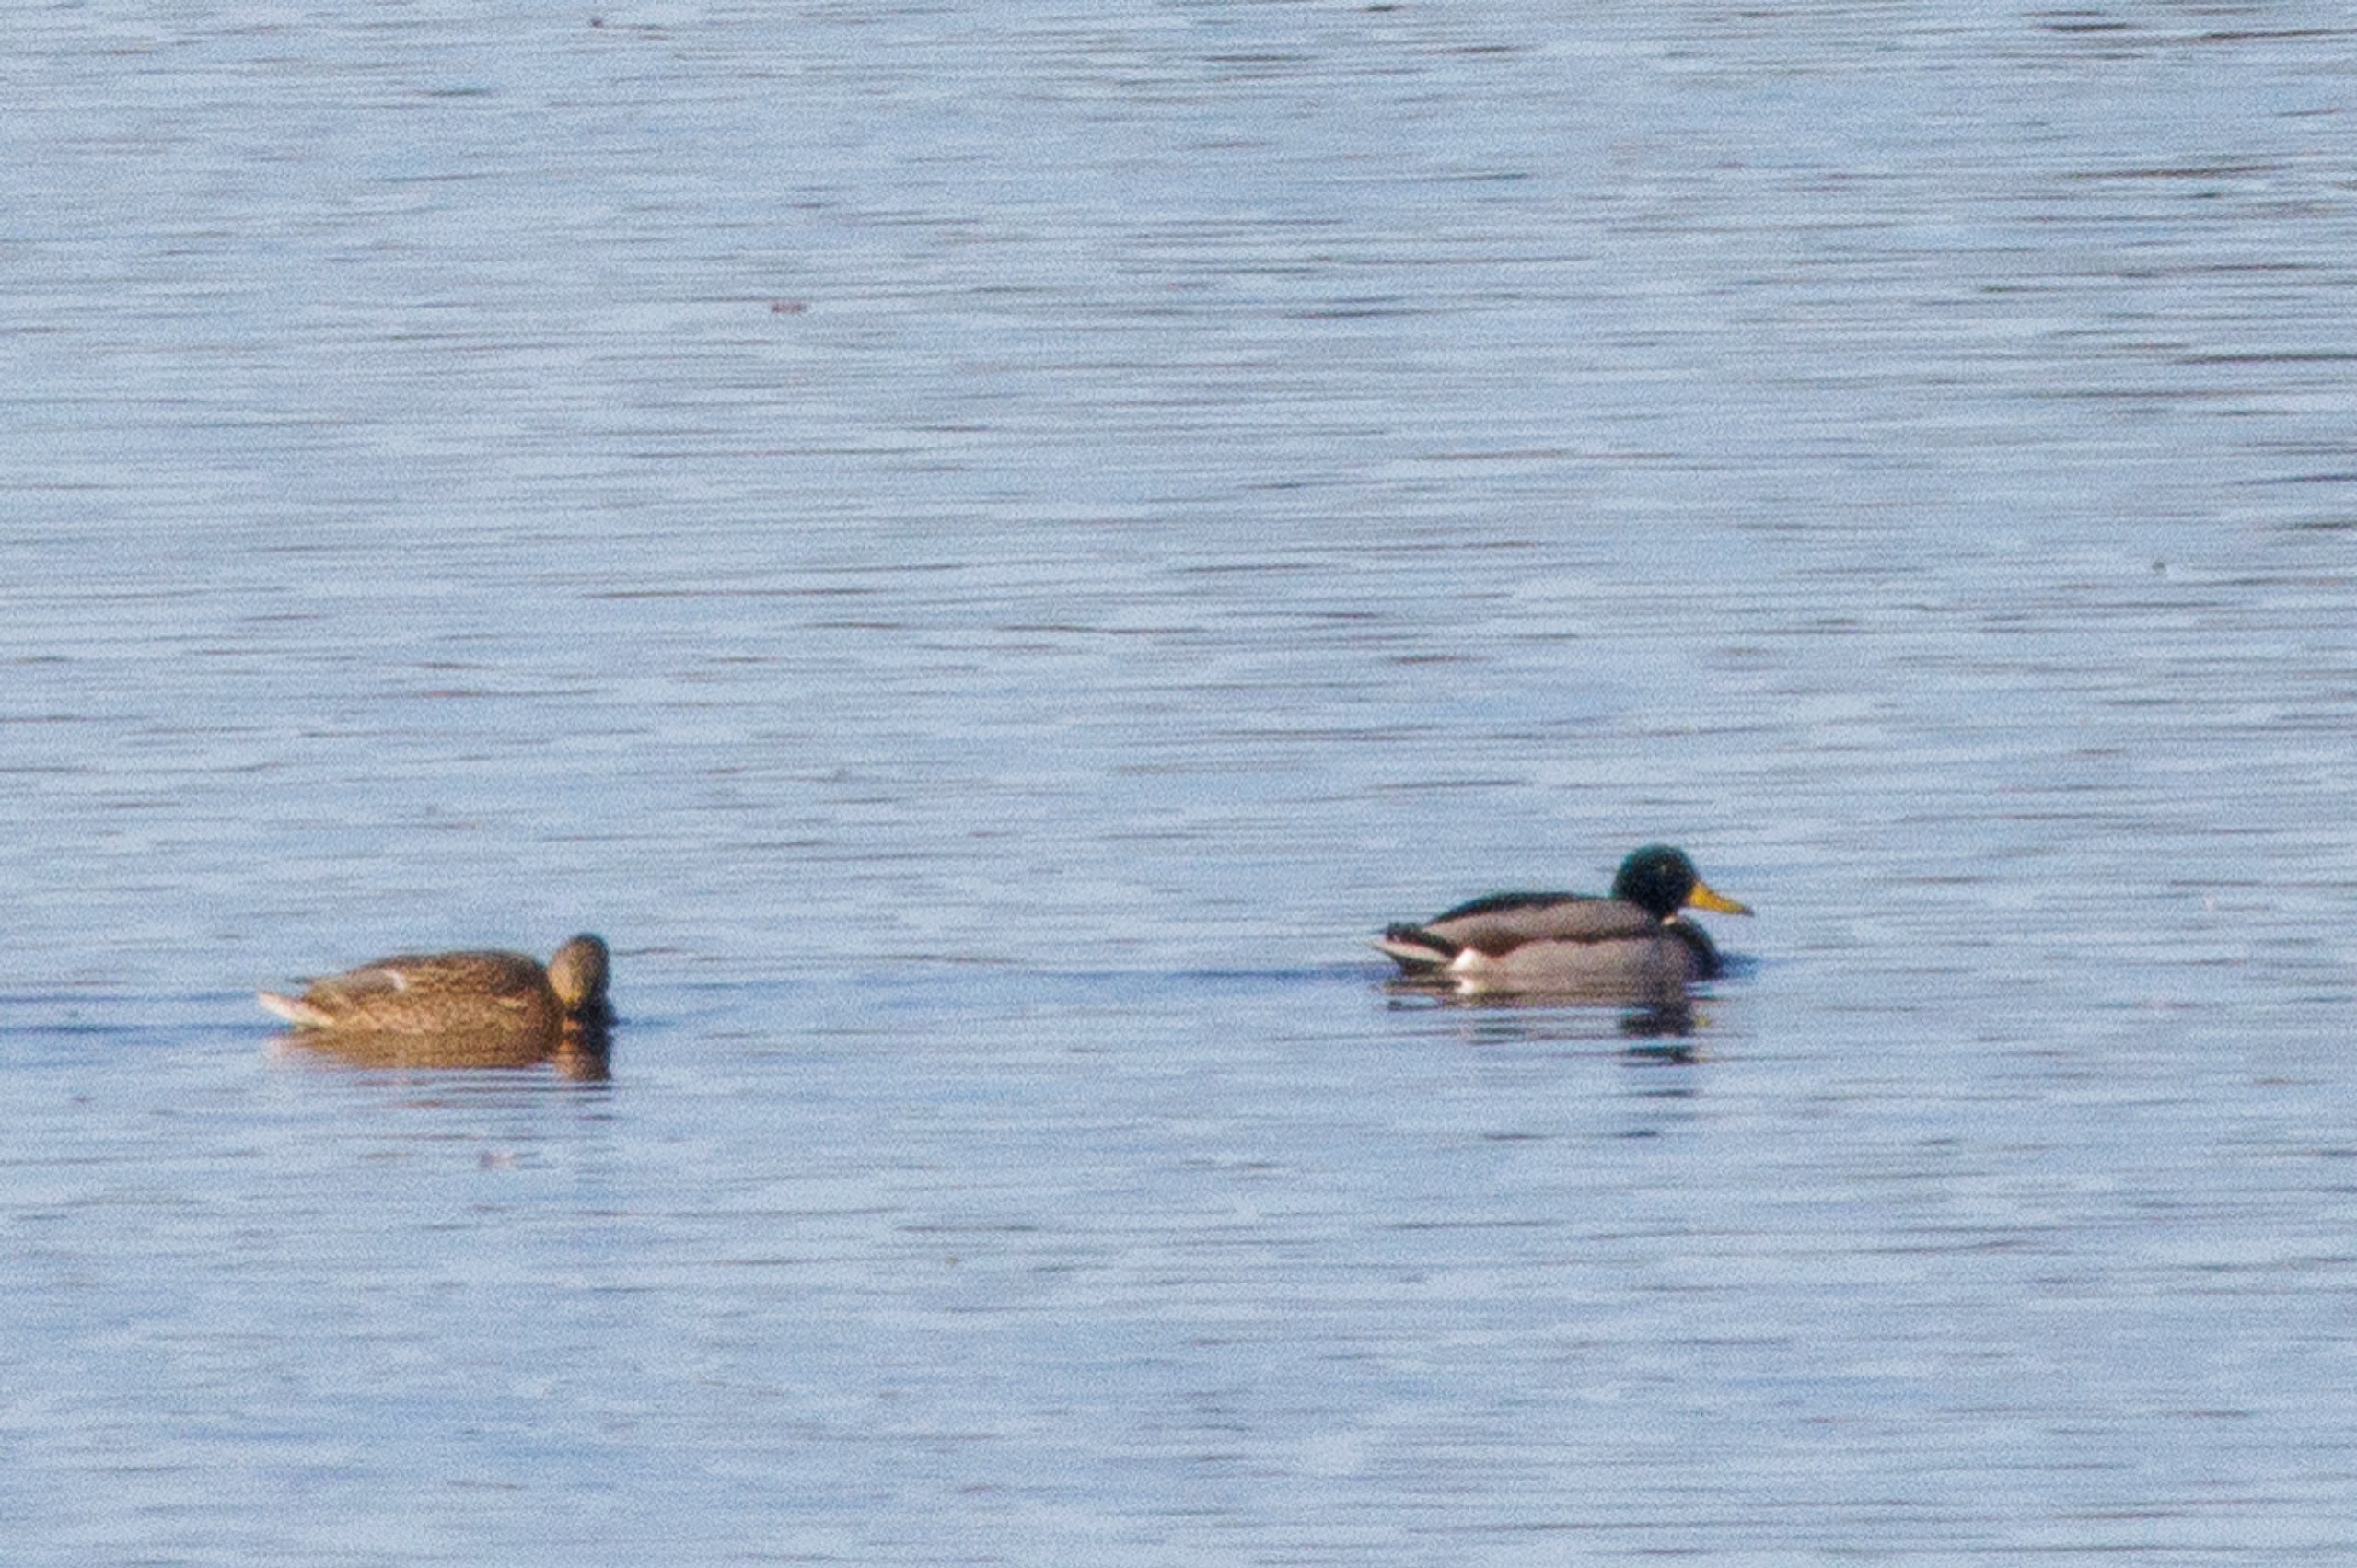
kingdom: Animalia
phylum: Chordata
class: Aves
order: Anseriformes
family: Anatidae
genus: Anas
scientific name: Anas platyrhynchos
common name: Gråand
